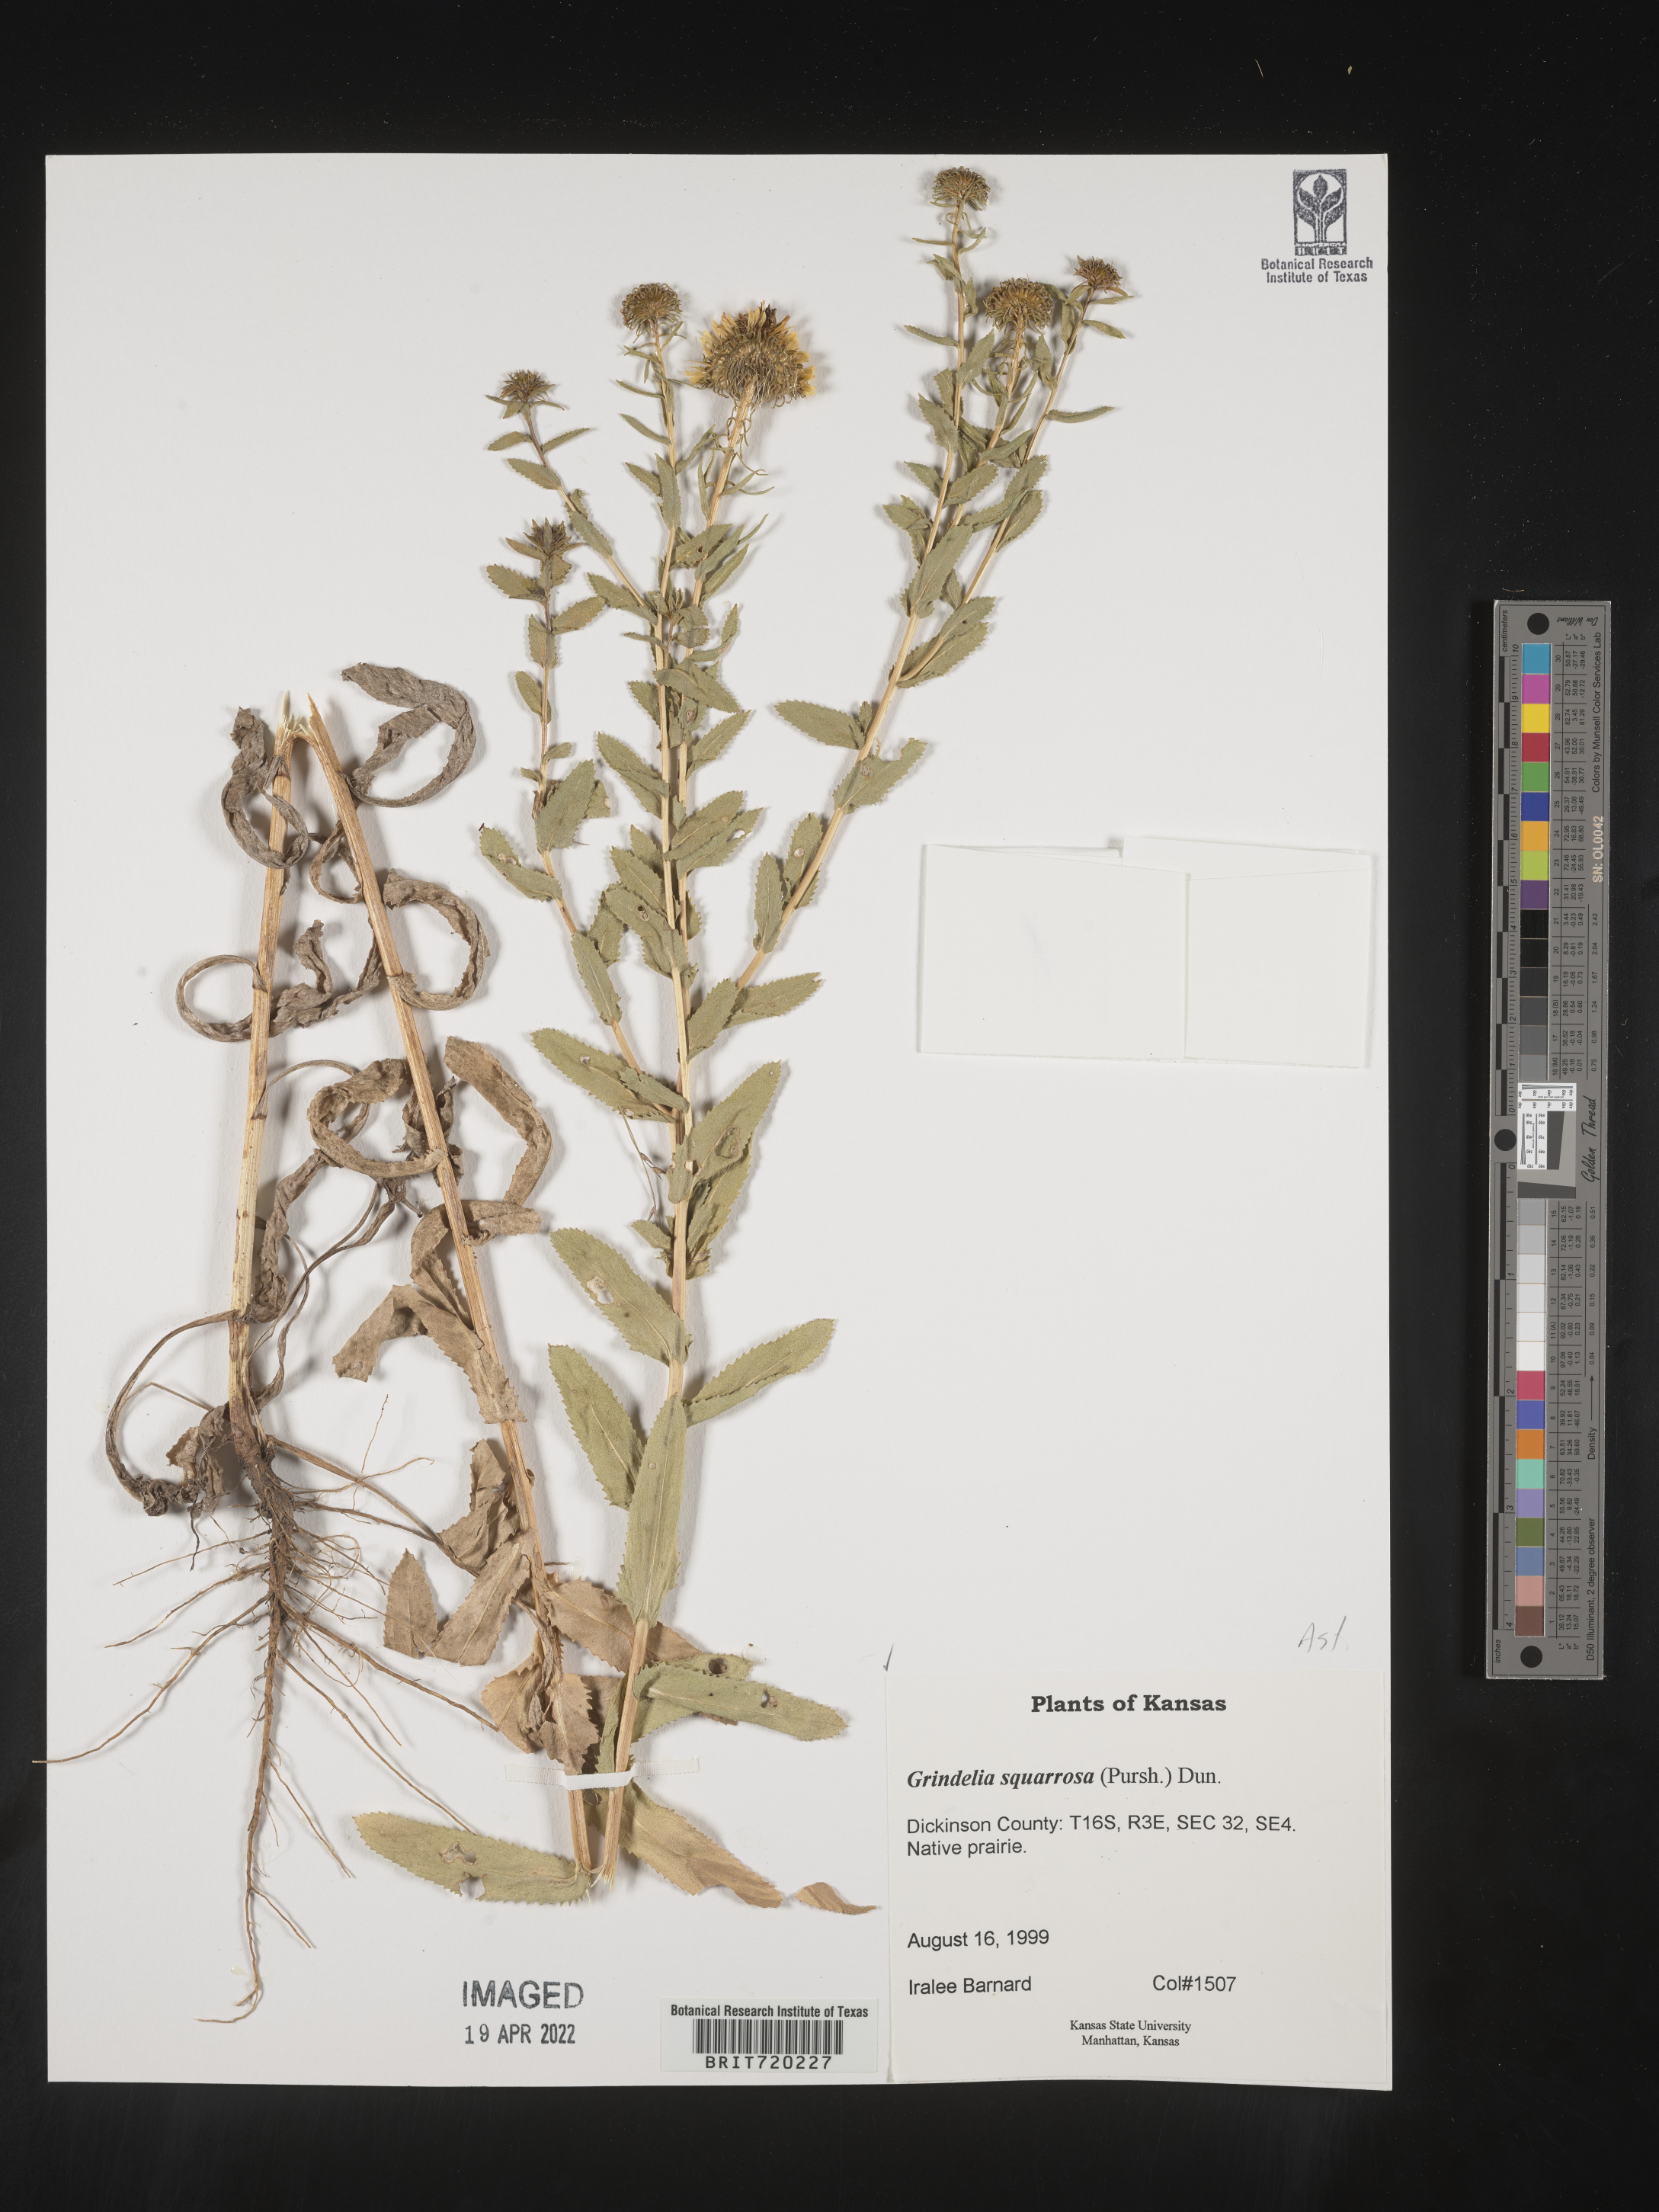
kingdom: Plantae
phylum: Tracheophyta
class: Magnoliopsida
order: Asterales
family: Asteraceae
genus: Grindelia
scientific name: Grindelia squarrosa
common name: Curly-cup gumweed
